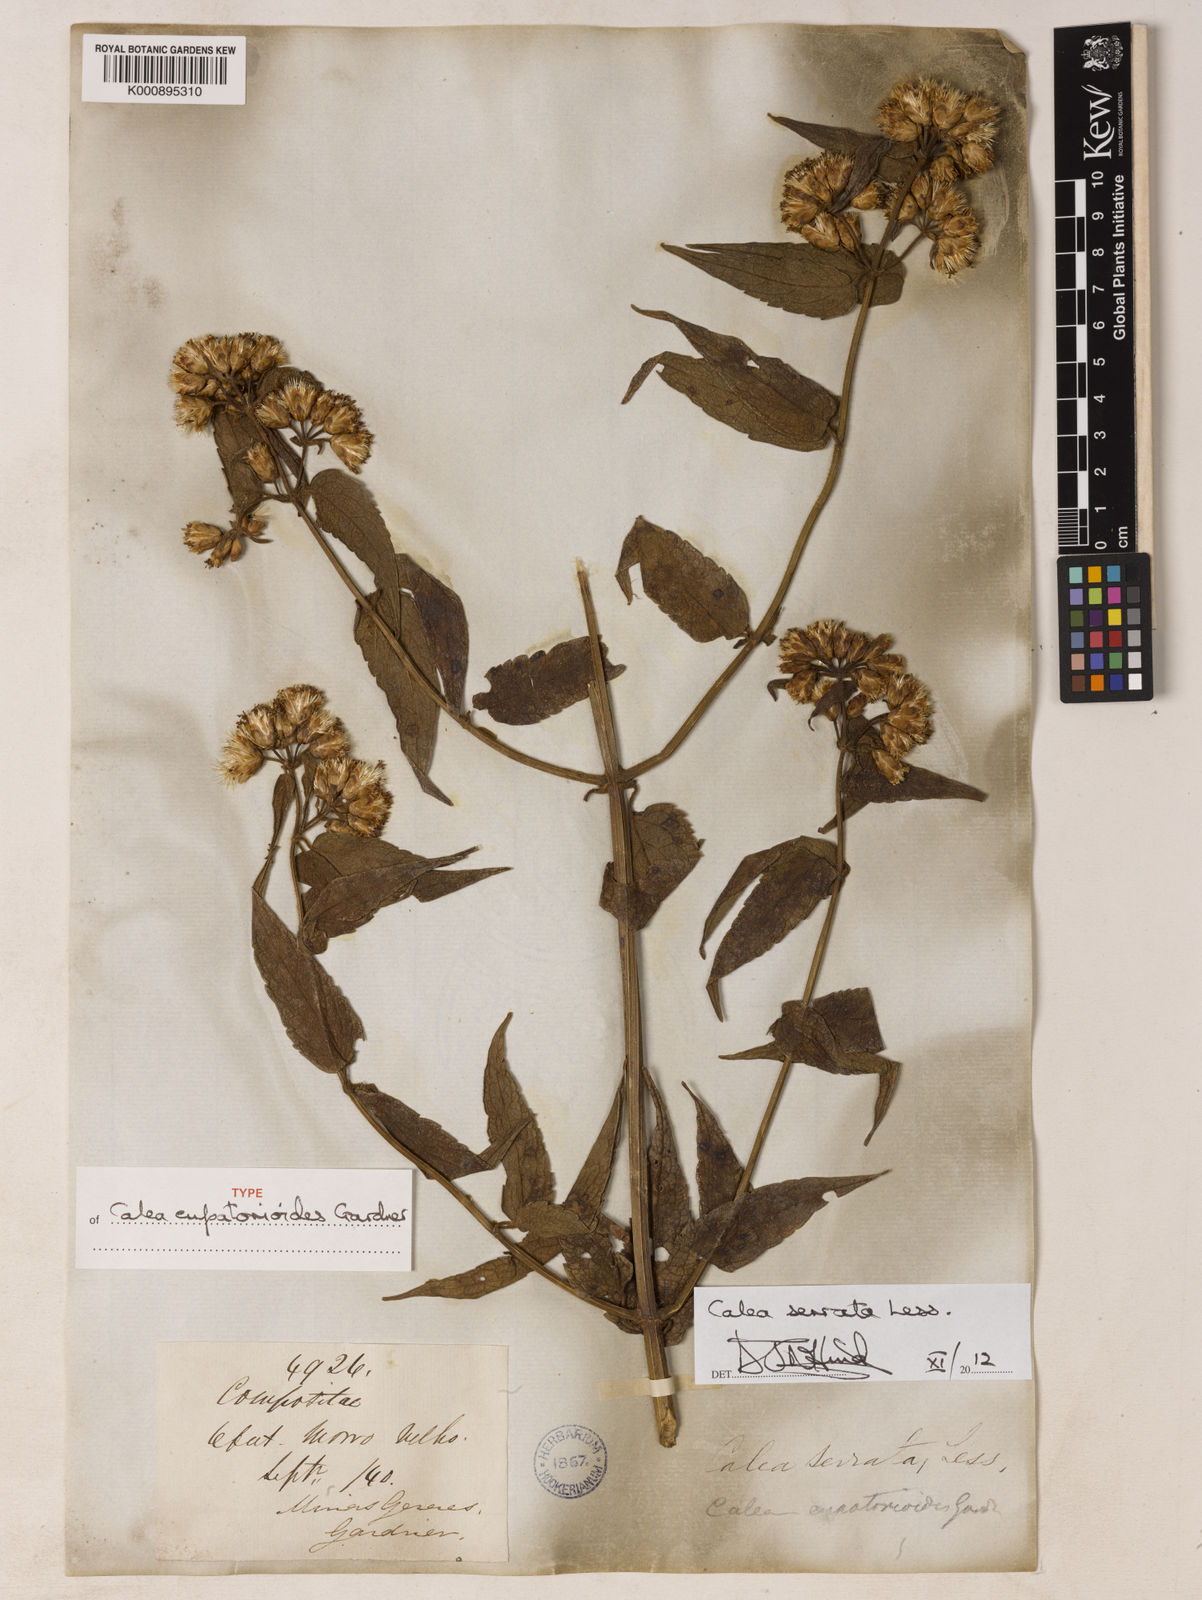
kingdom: Plantae
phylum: Tracheophyta
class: Magnoliopsida
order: Asterales
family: Asteraceae
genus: Calea
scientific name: Calea serrata
